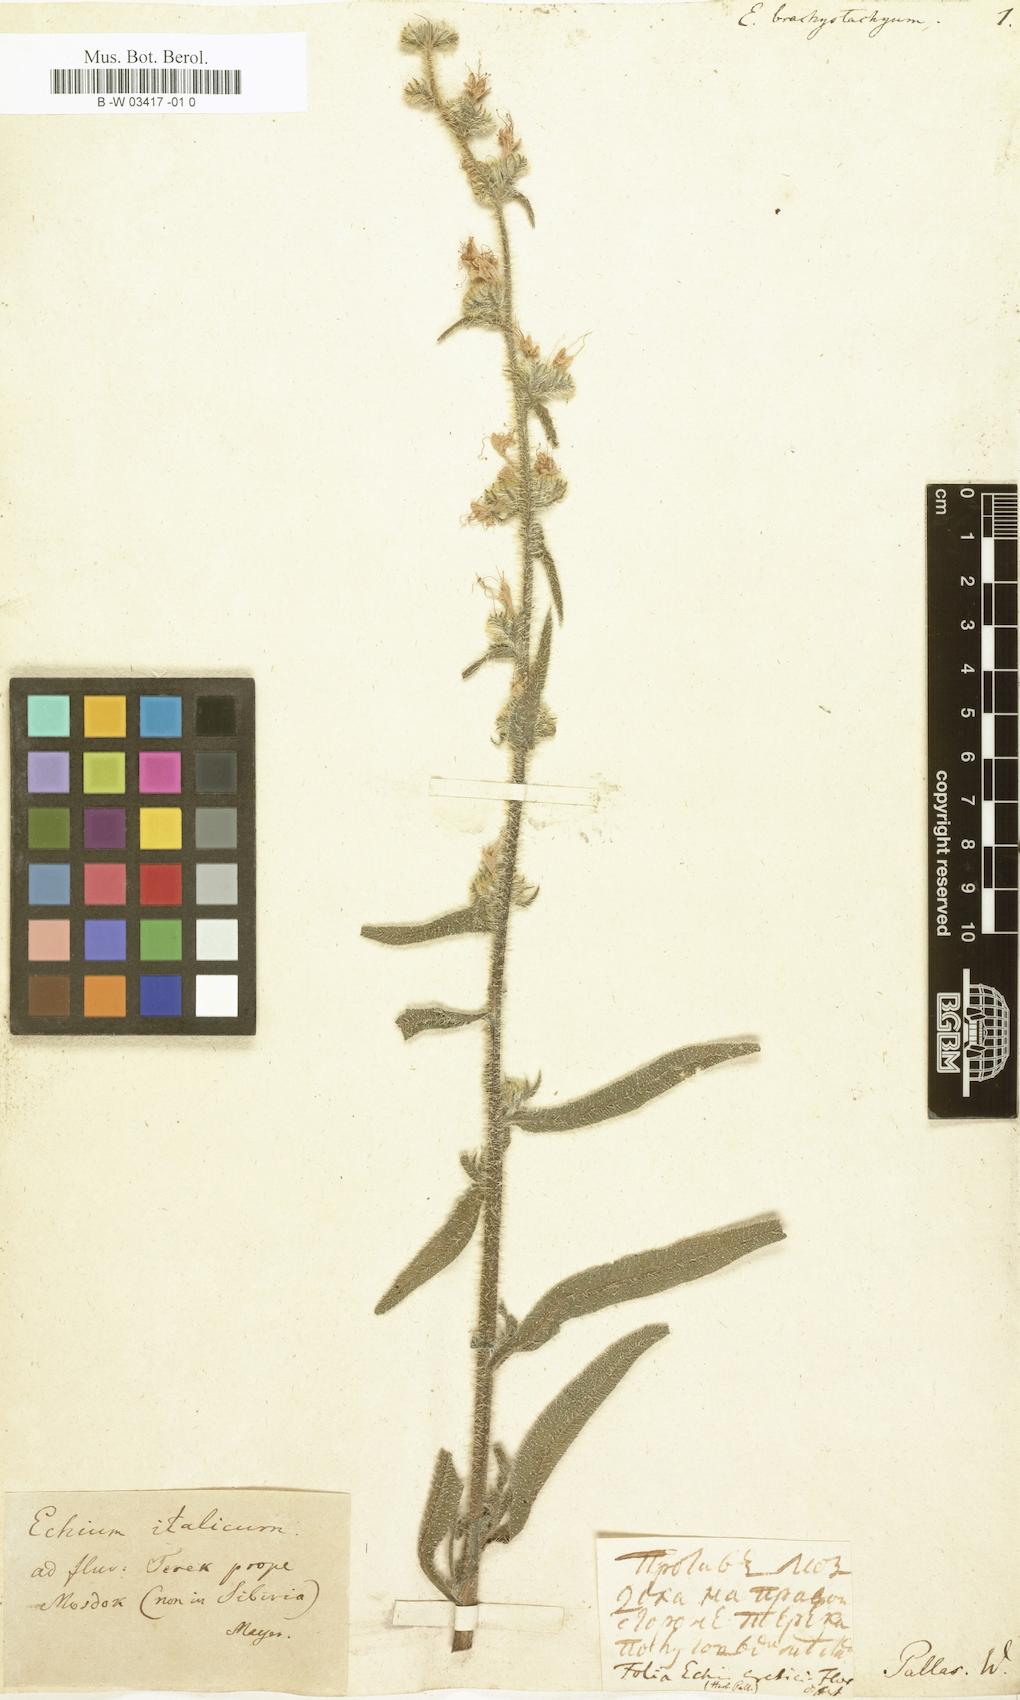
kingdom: Plantae
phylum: Tracheophyta
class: Magnoliopsida
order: Boraginales
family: Boraginaceae
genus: Echium
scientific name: Echium glomeratum
